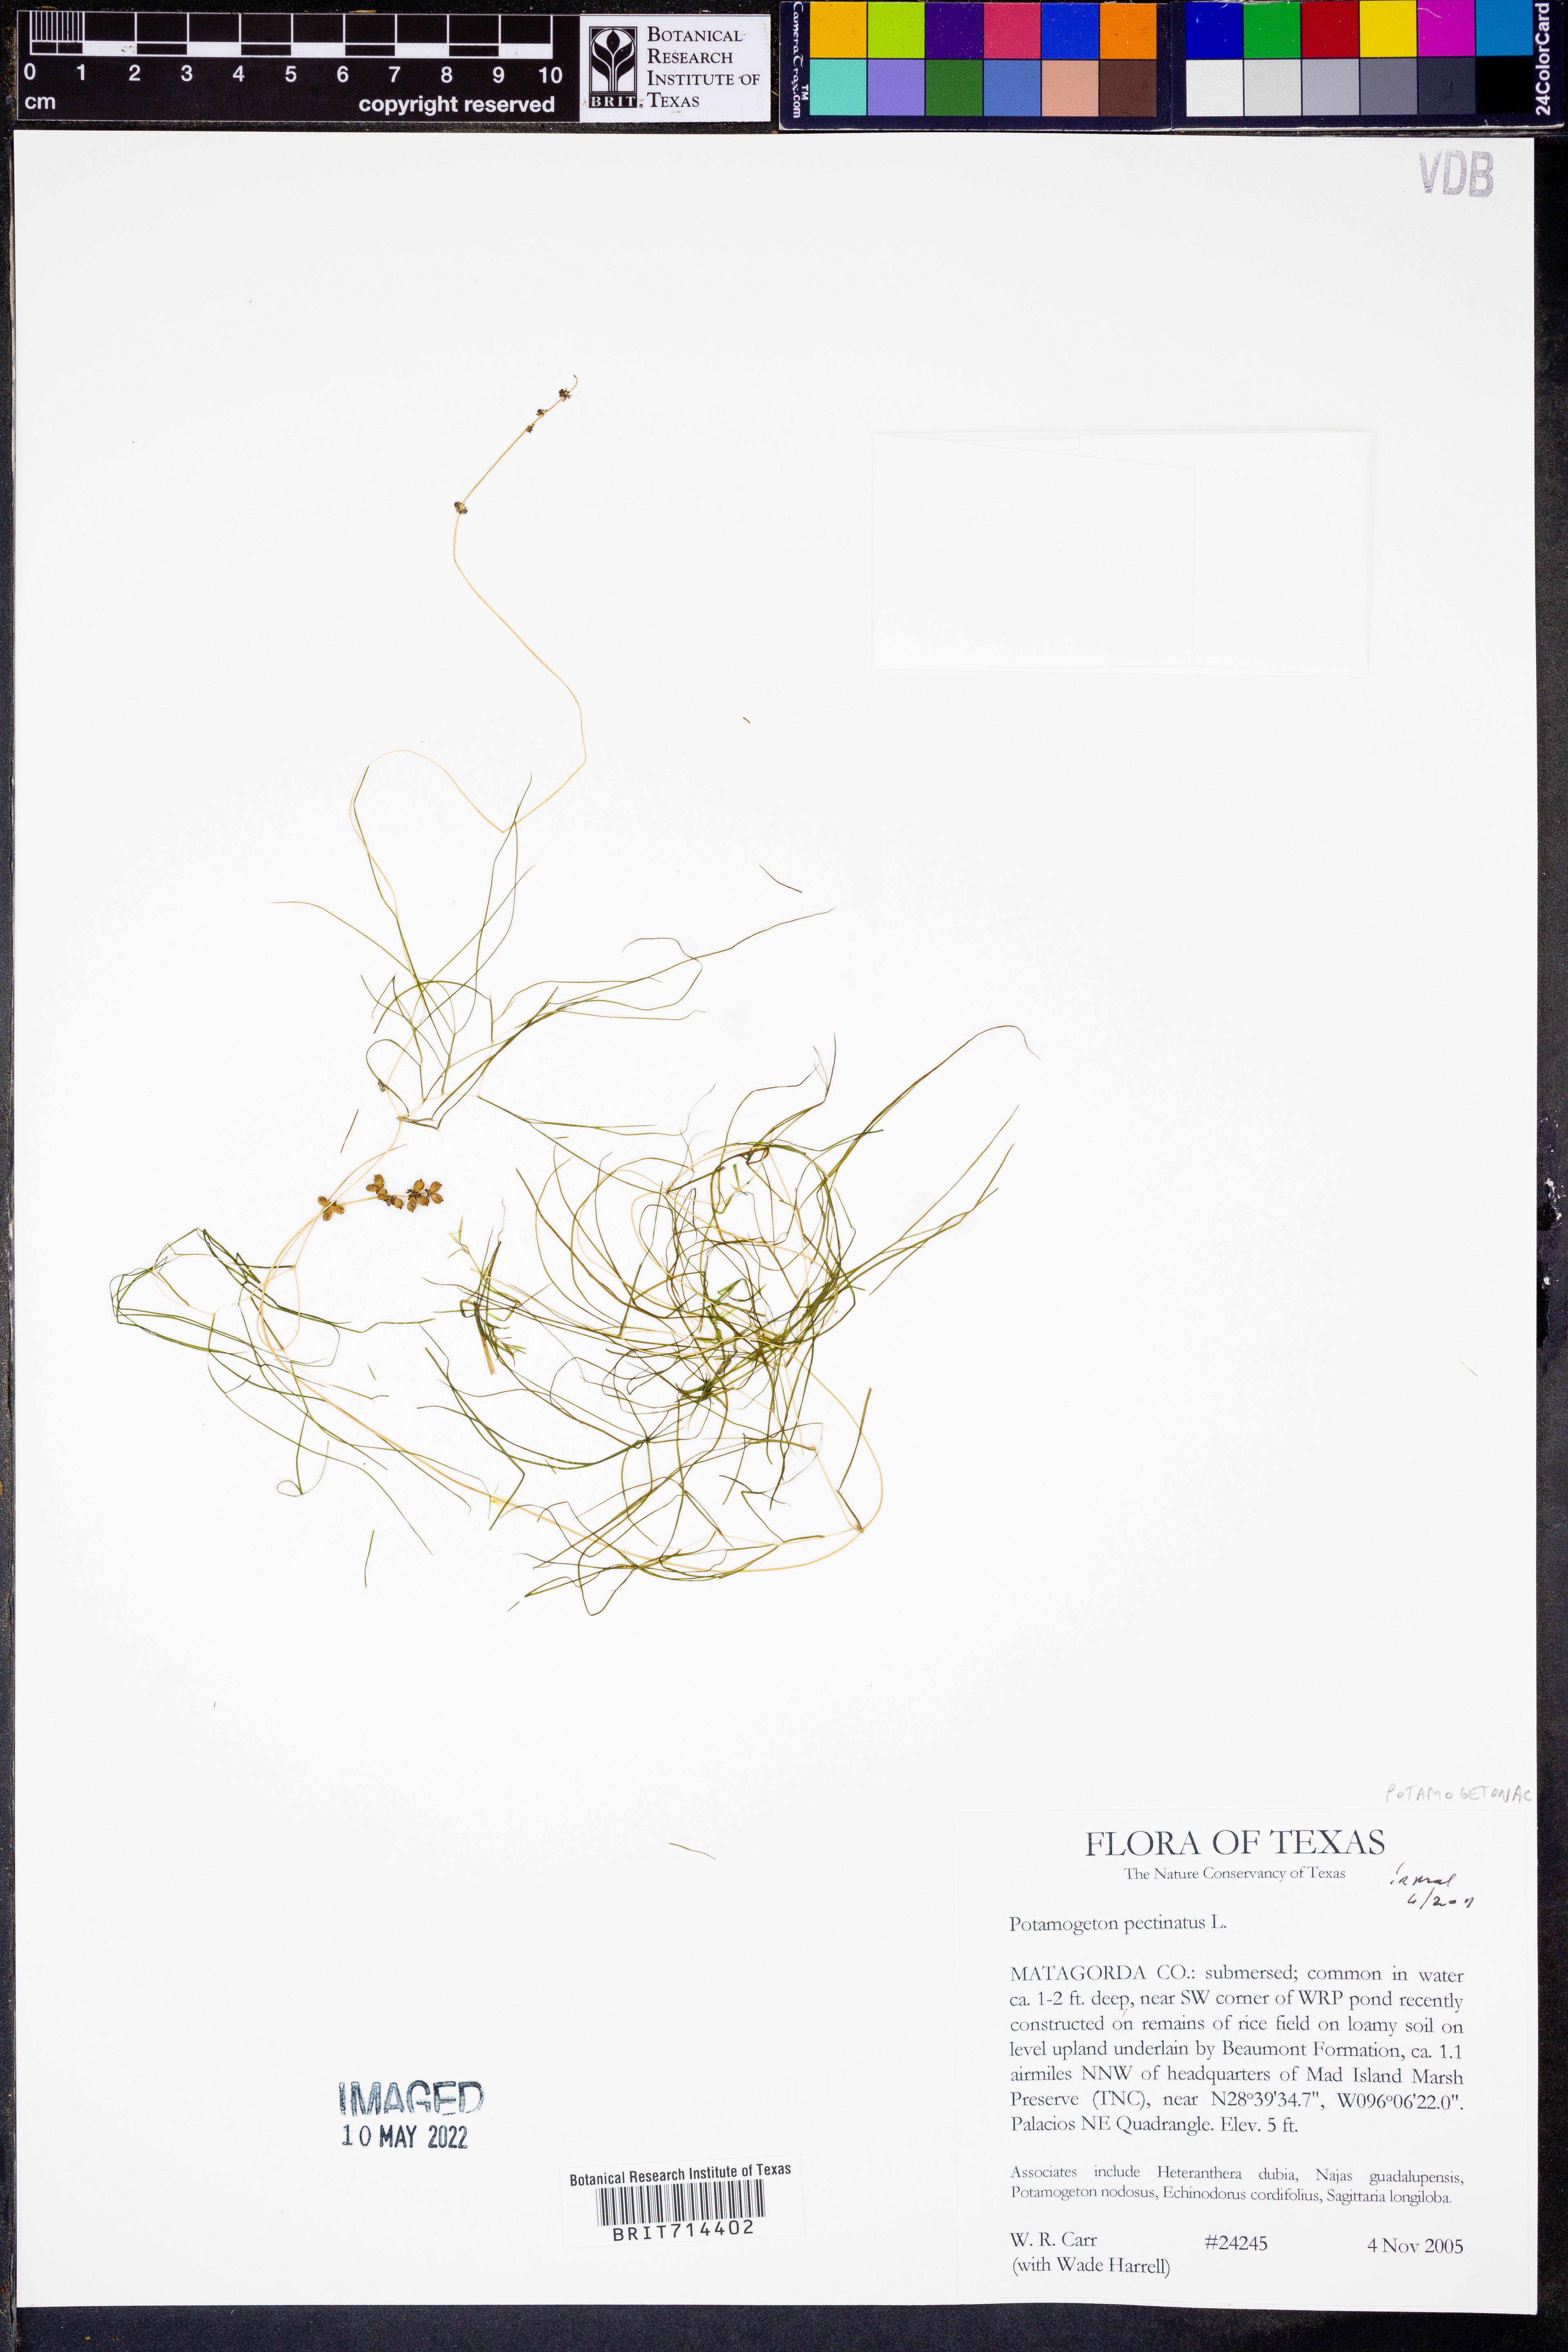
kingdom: Plantae
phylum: Tracheophyta
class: Liliopsida
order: Alismatales
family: Potamogetonaceae
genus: Stuckenia
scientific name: Stuckenia pectinata
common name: Sago pondweed
